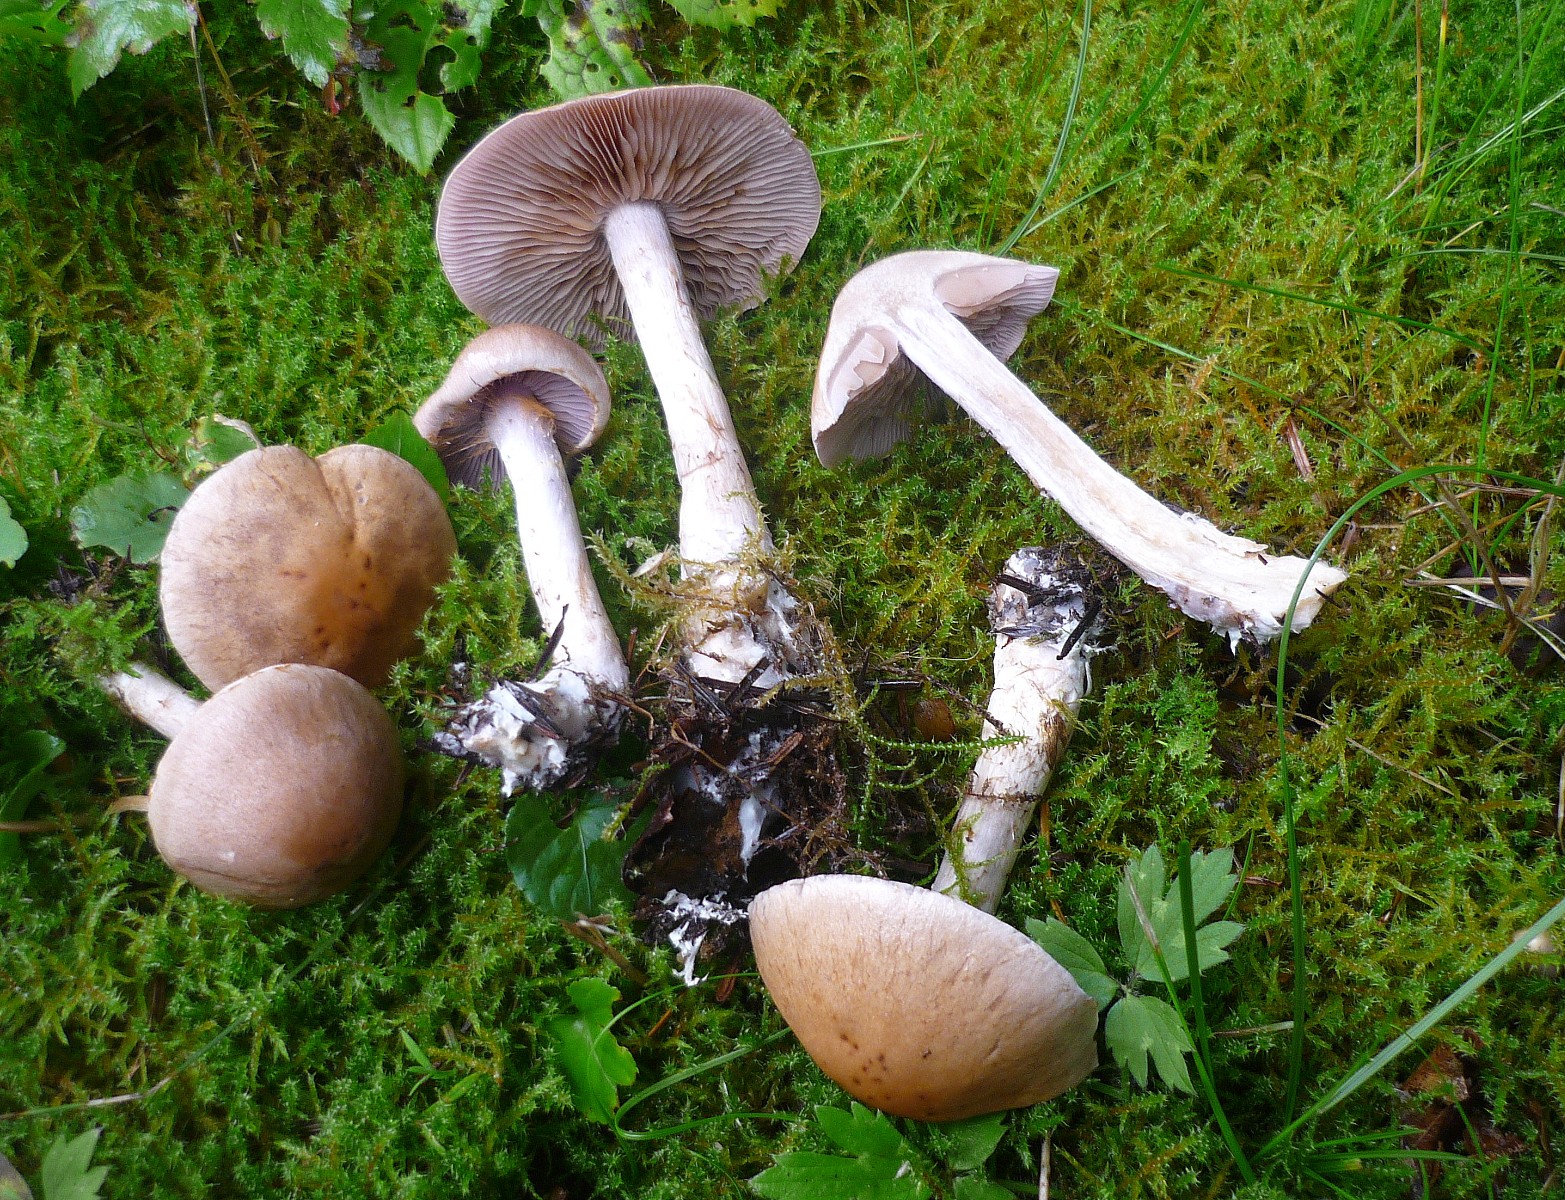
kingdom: Fungi
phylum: Basidiomycota
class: Agaricomycetes
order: Agaricales
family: Cortinariaceae
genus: Cortinarius
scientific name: Cortinarius
